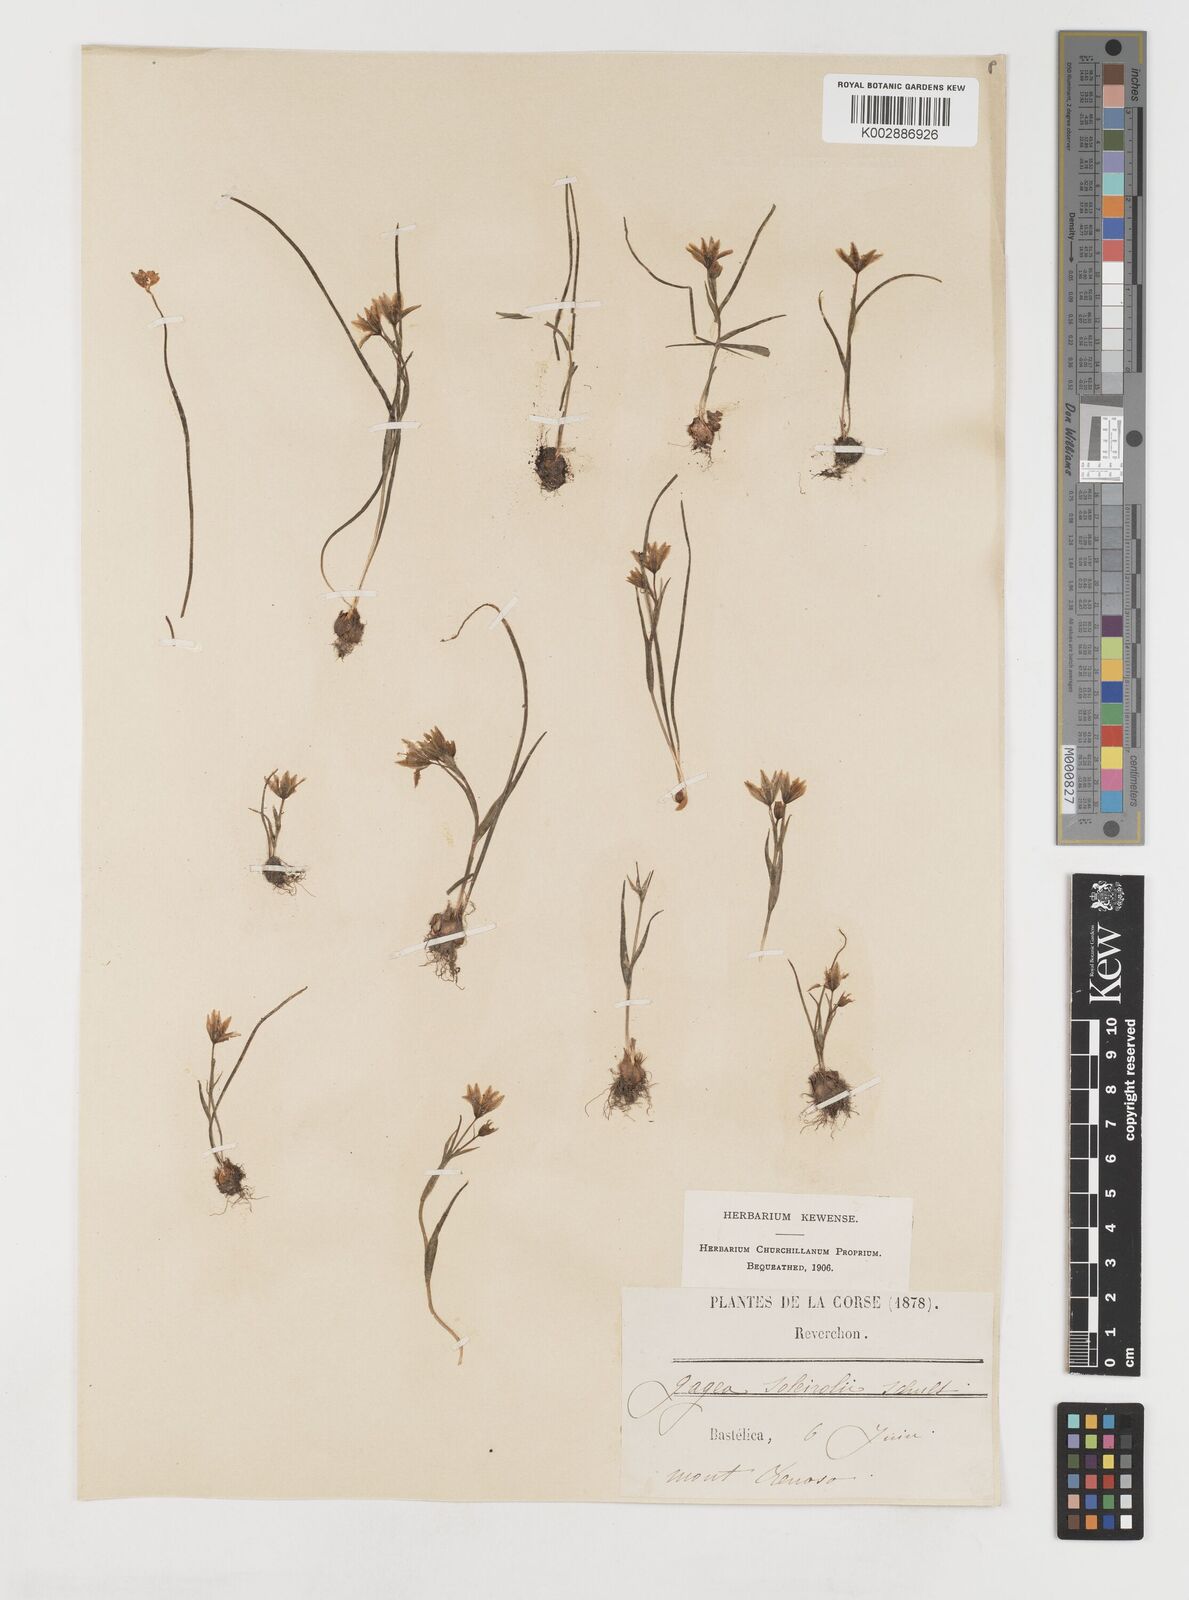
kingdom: Plantae
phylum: Tracheophyta
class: Liliopsida
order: Liliales
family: Liliaceae
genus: Gagea
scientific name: Gagea soleirolii
